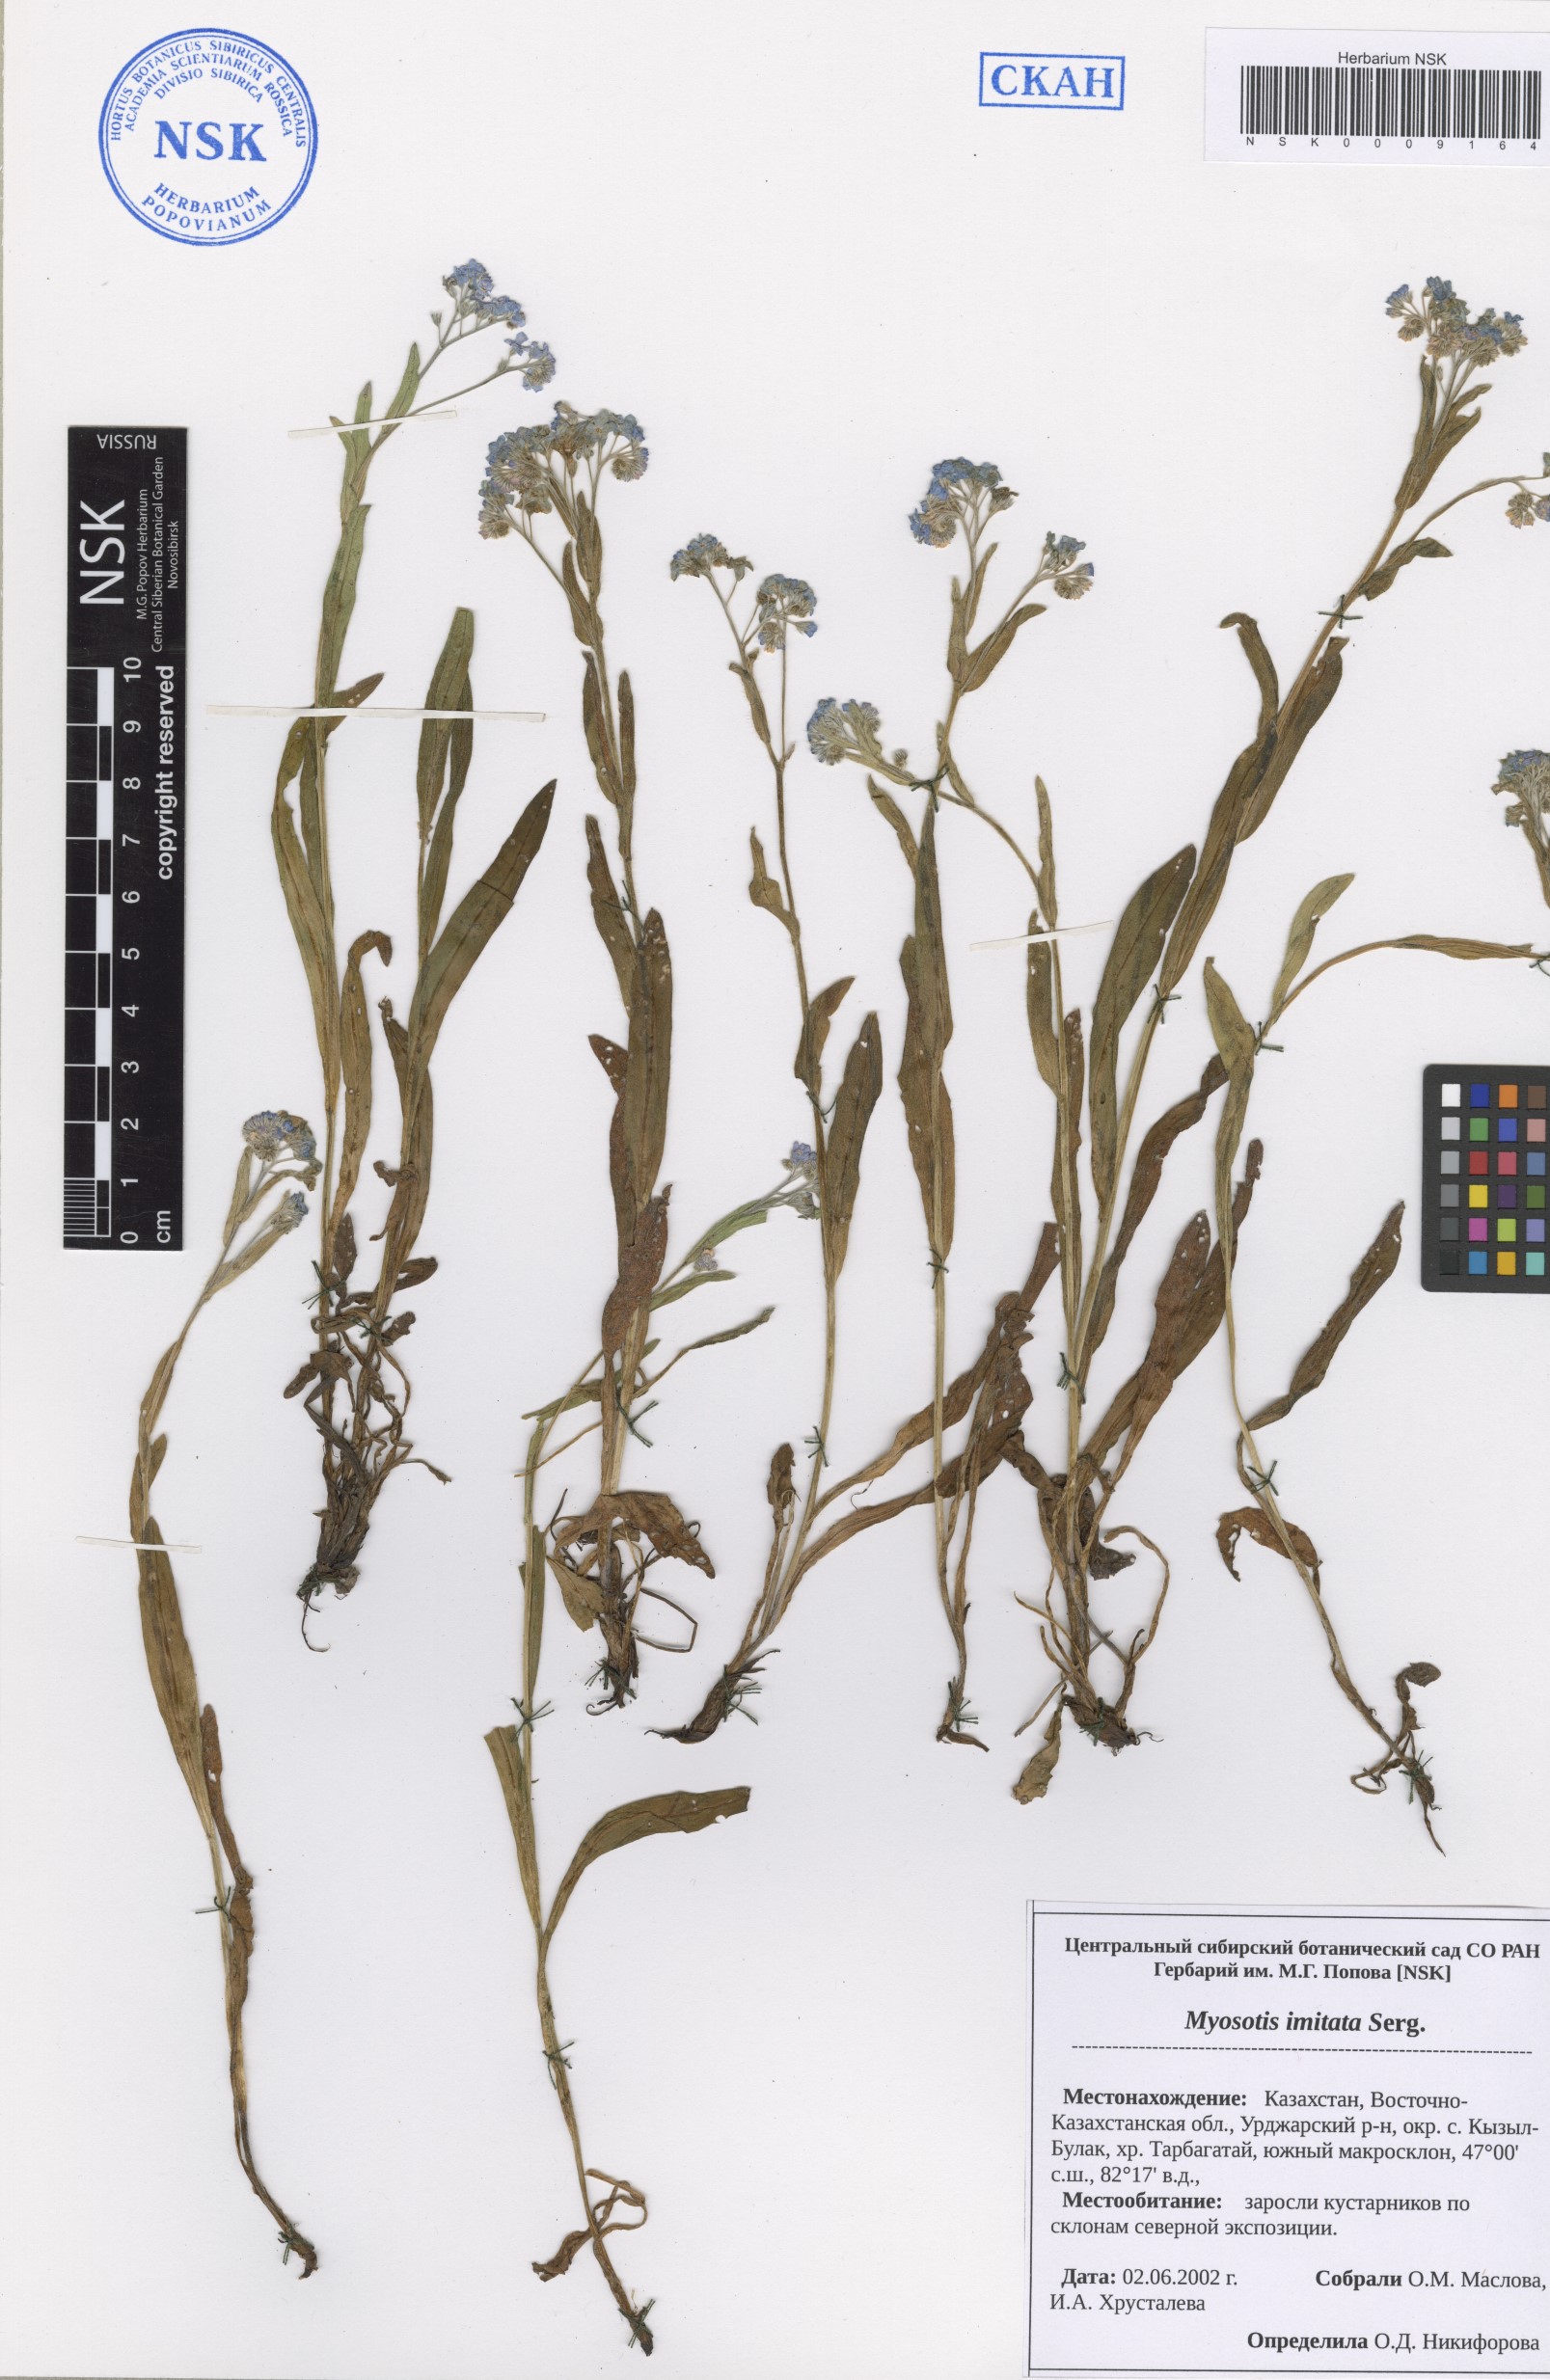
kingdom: Plantae
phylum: Tracheophyta
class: Magnoliopsida
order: Boraginales
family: Boraginaceae
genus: Myosotis
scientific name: Myosotis imitata
